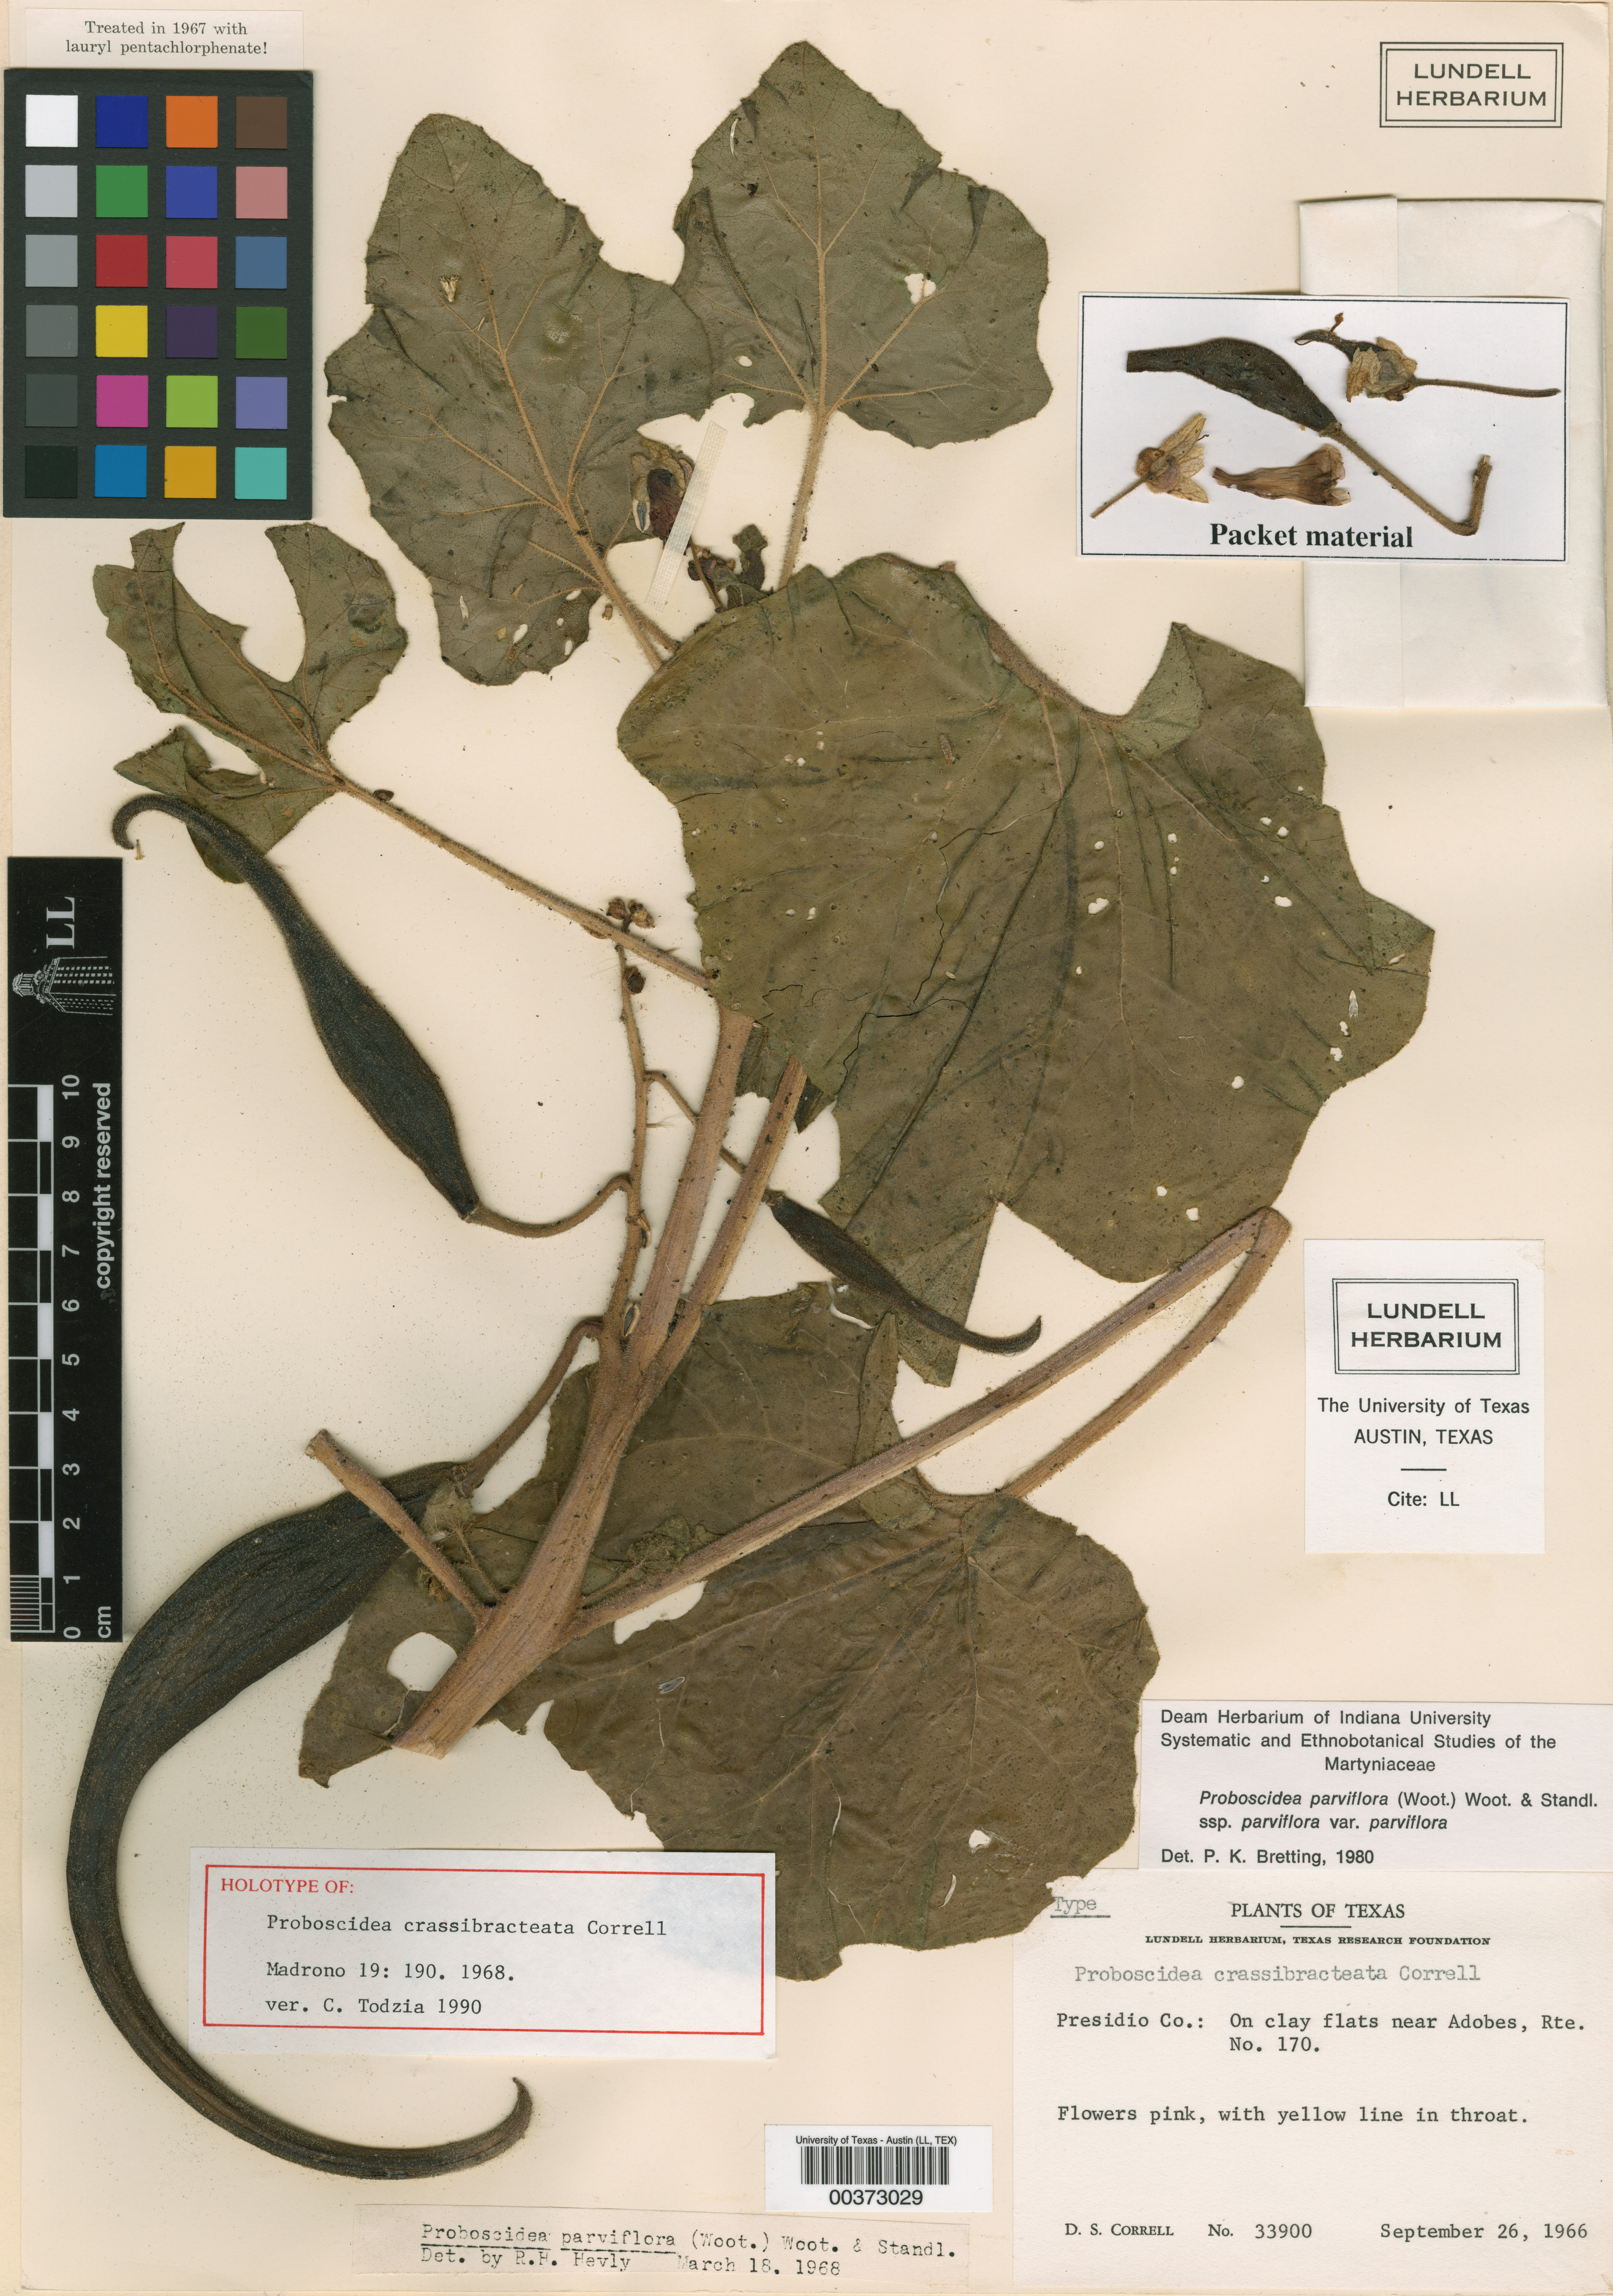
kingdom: Plantae
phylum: Tracheophyta
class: Magnoliopsida
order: Lamiales
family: Martyniaceae
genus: Proboscidea
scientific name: Proboscidea parviflora
